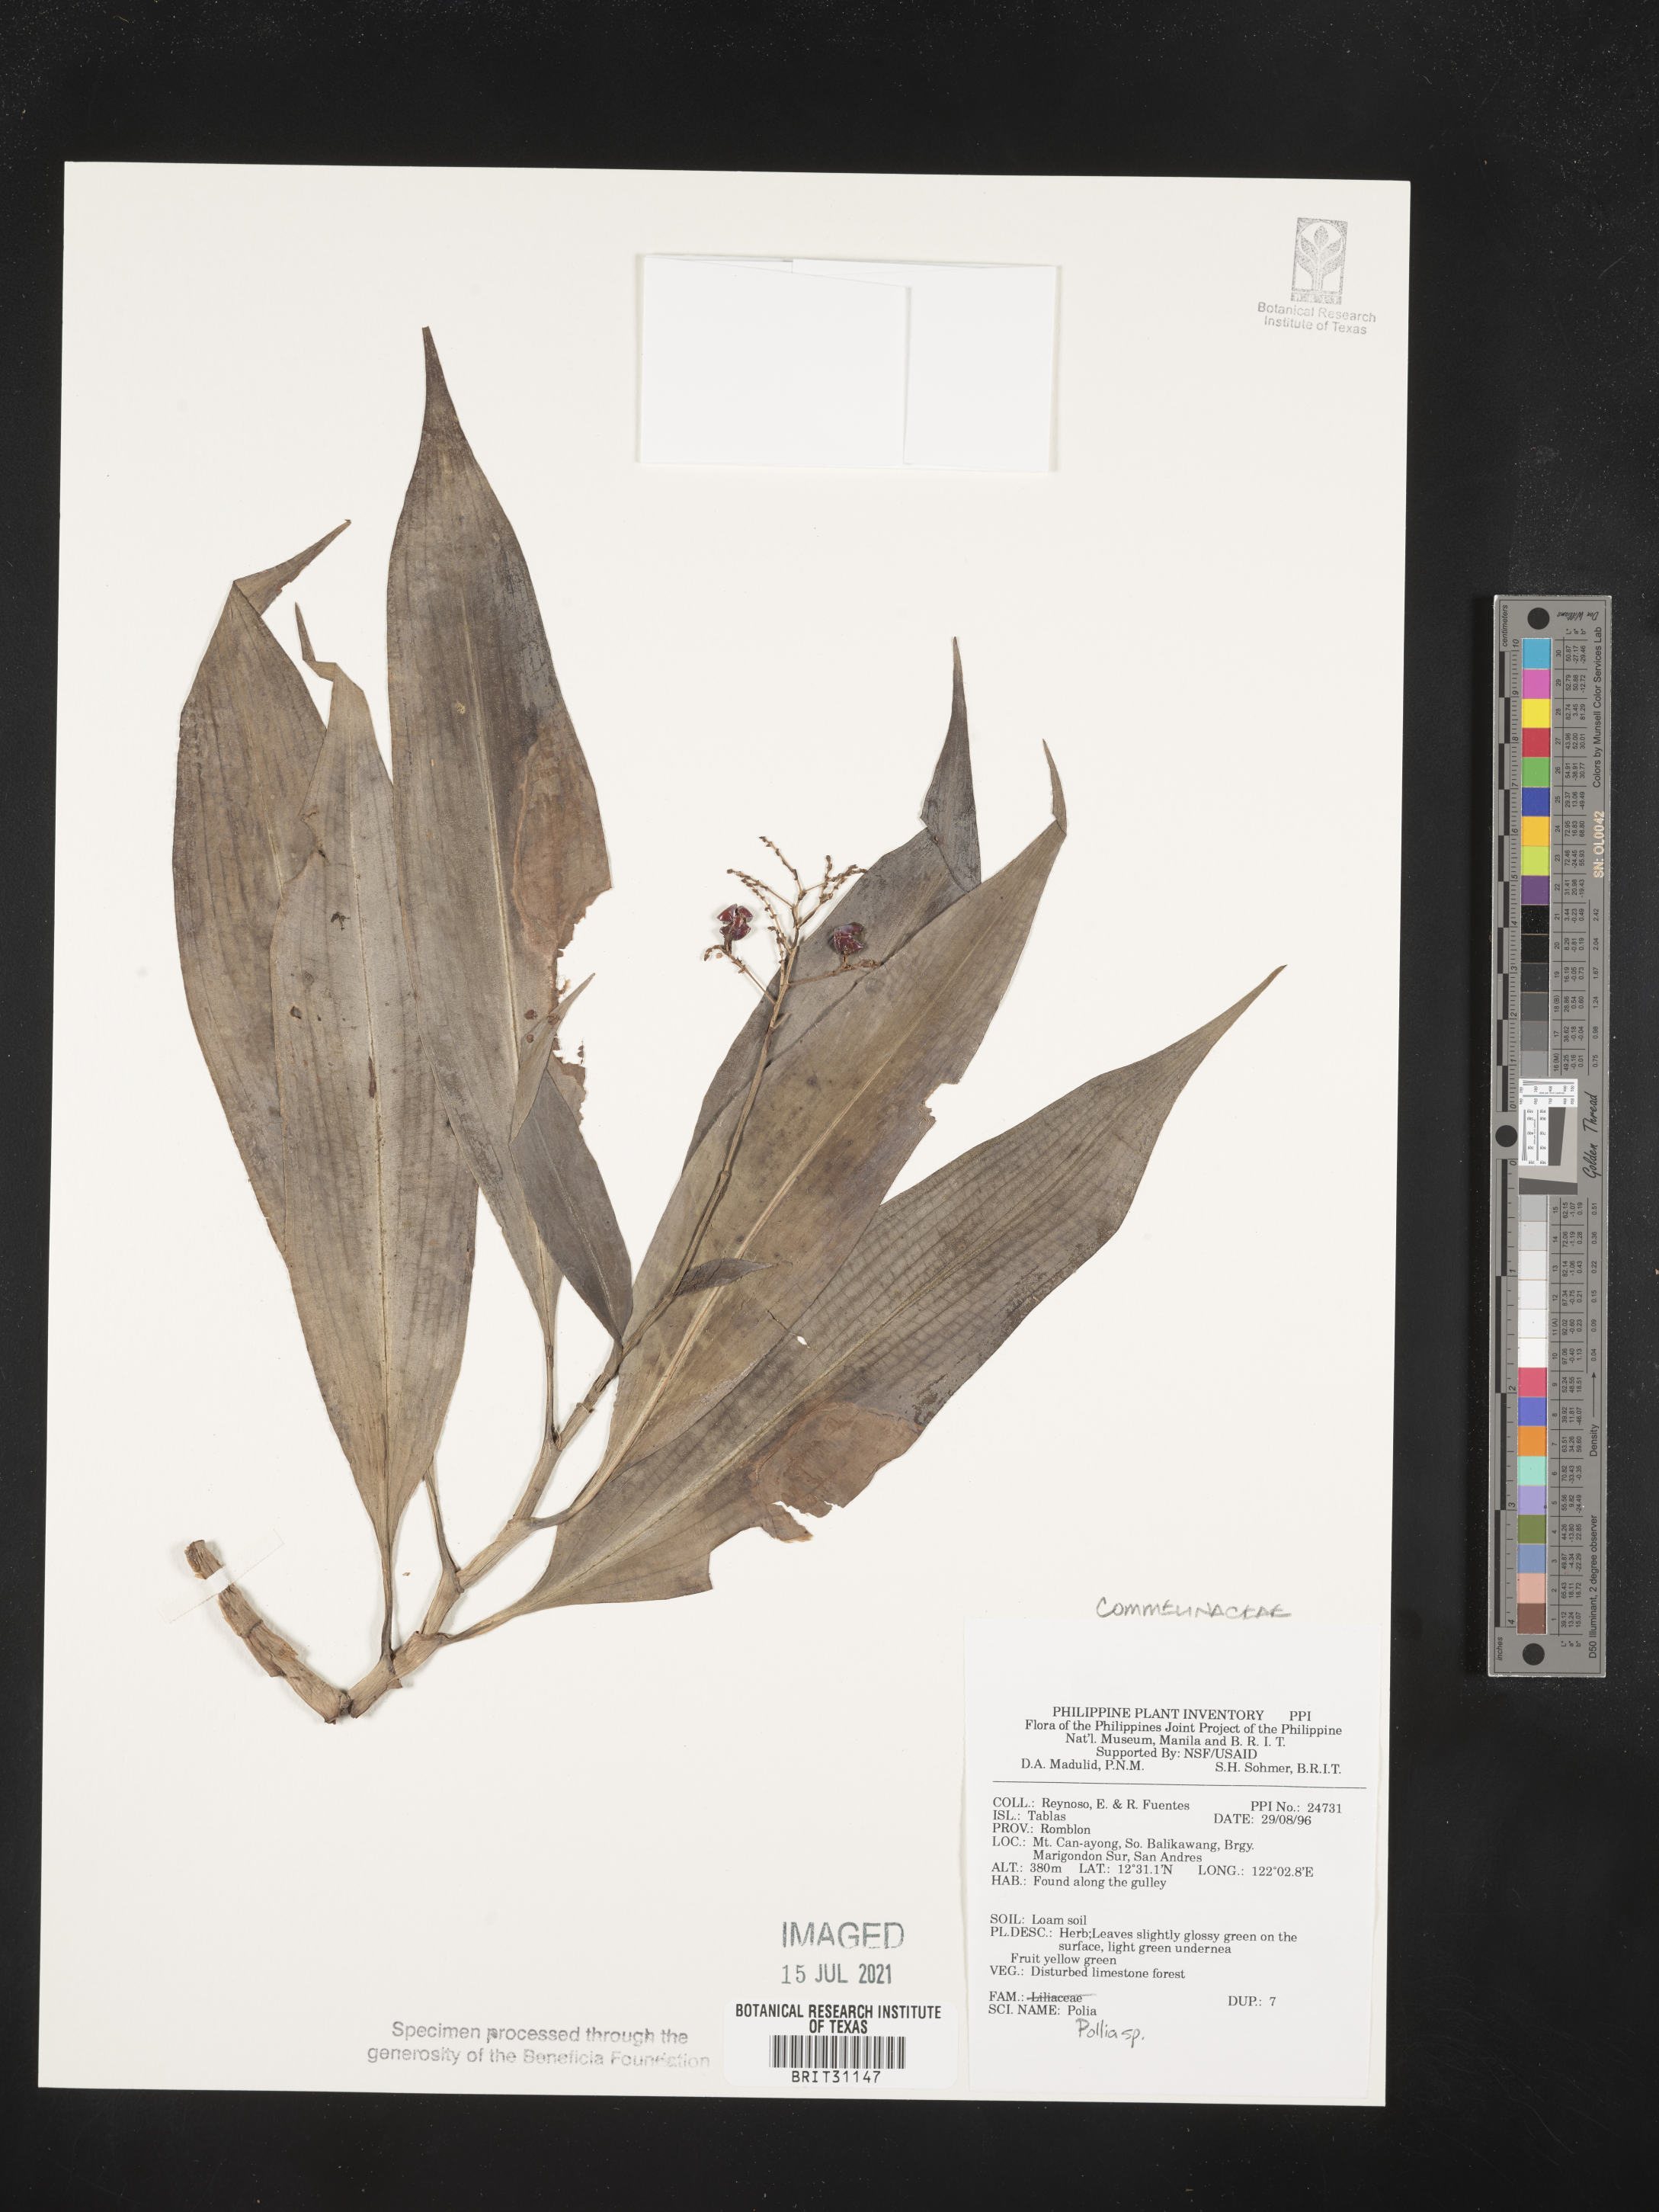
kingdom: Plantae
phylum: Tracheophyta
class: Liliopsida
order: Commelinales
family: Commelinaceae
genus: Pollia
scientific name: Pollia
